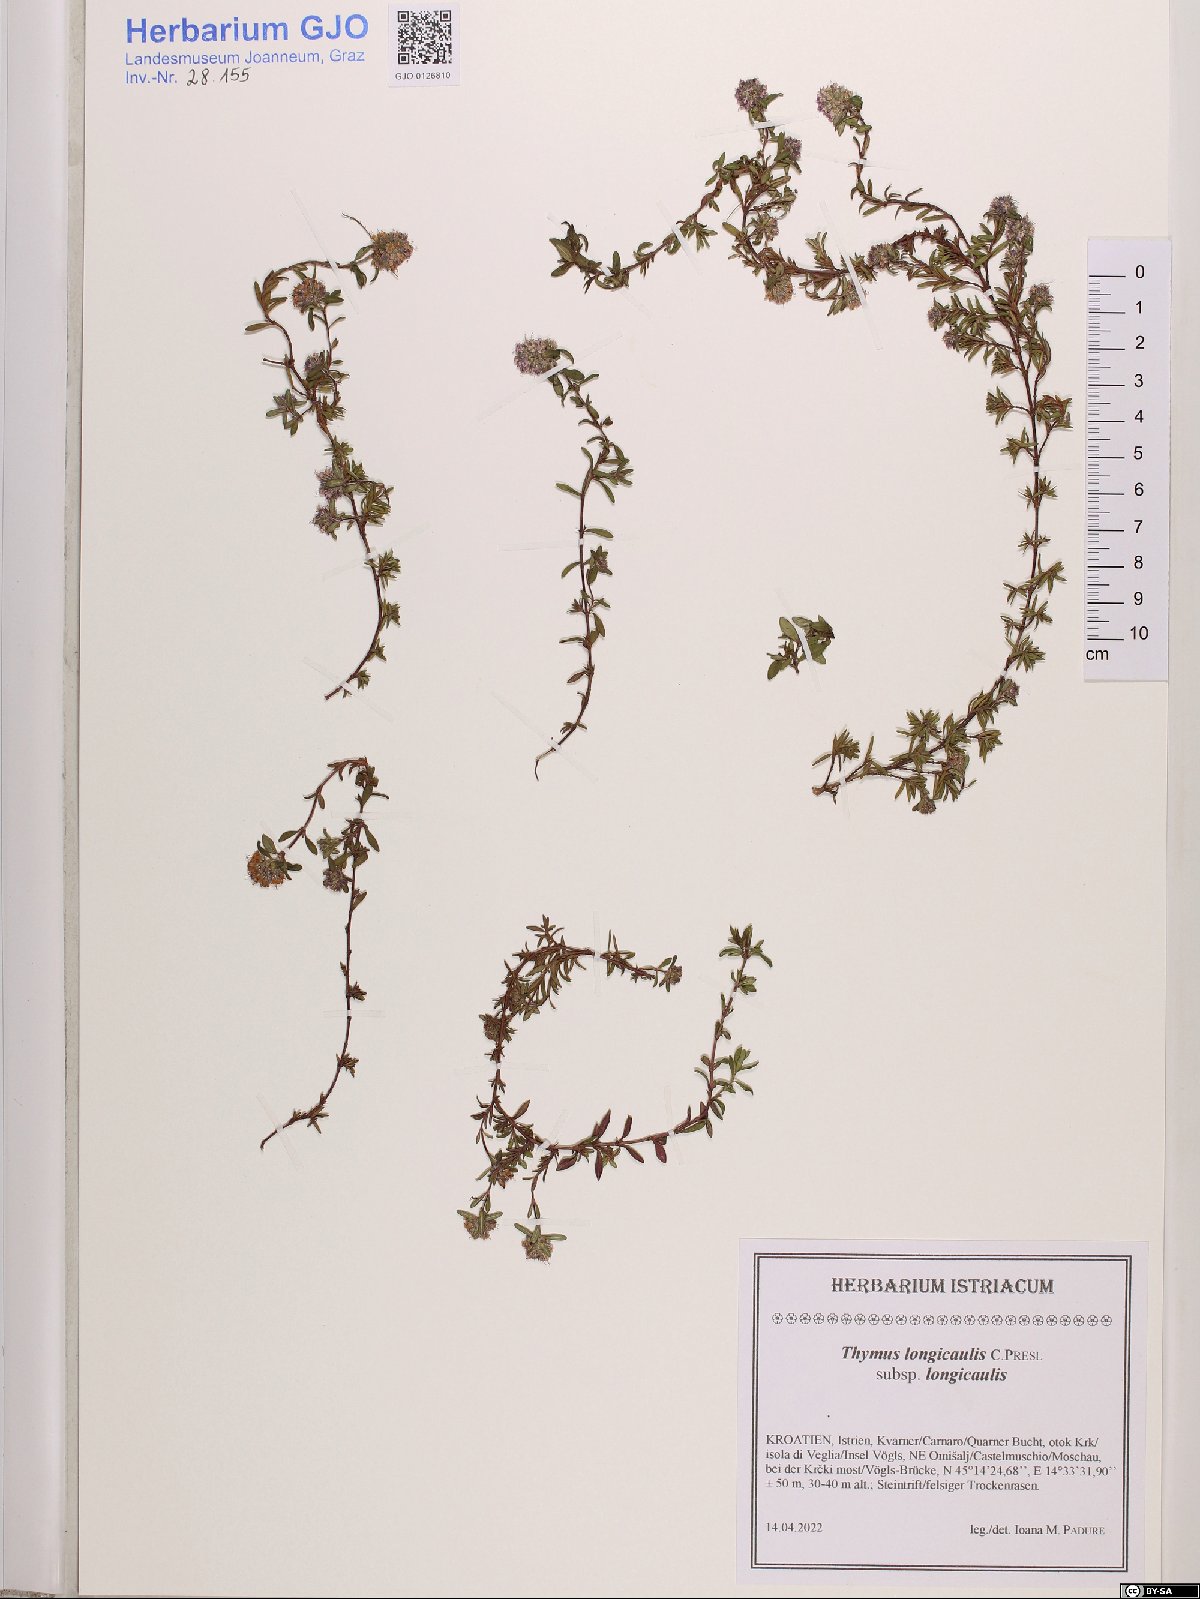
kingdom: Plantae
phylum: Tracheophyta
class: Magnoliopsida
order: Lamiales
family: Lamiaceae
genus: Thymus
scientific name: Thymus longicaulis
